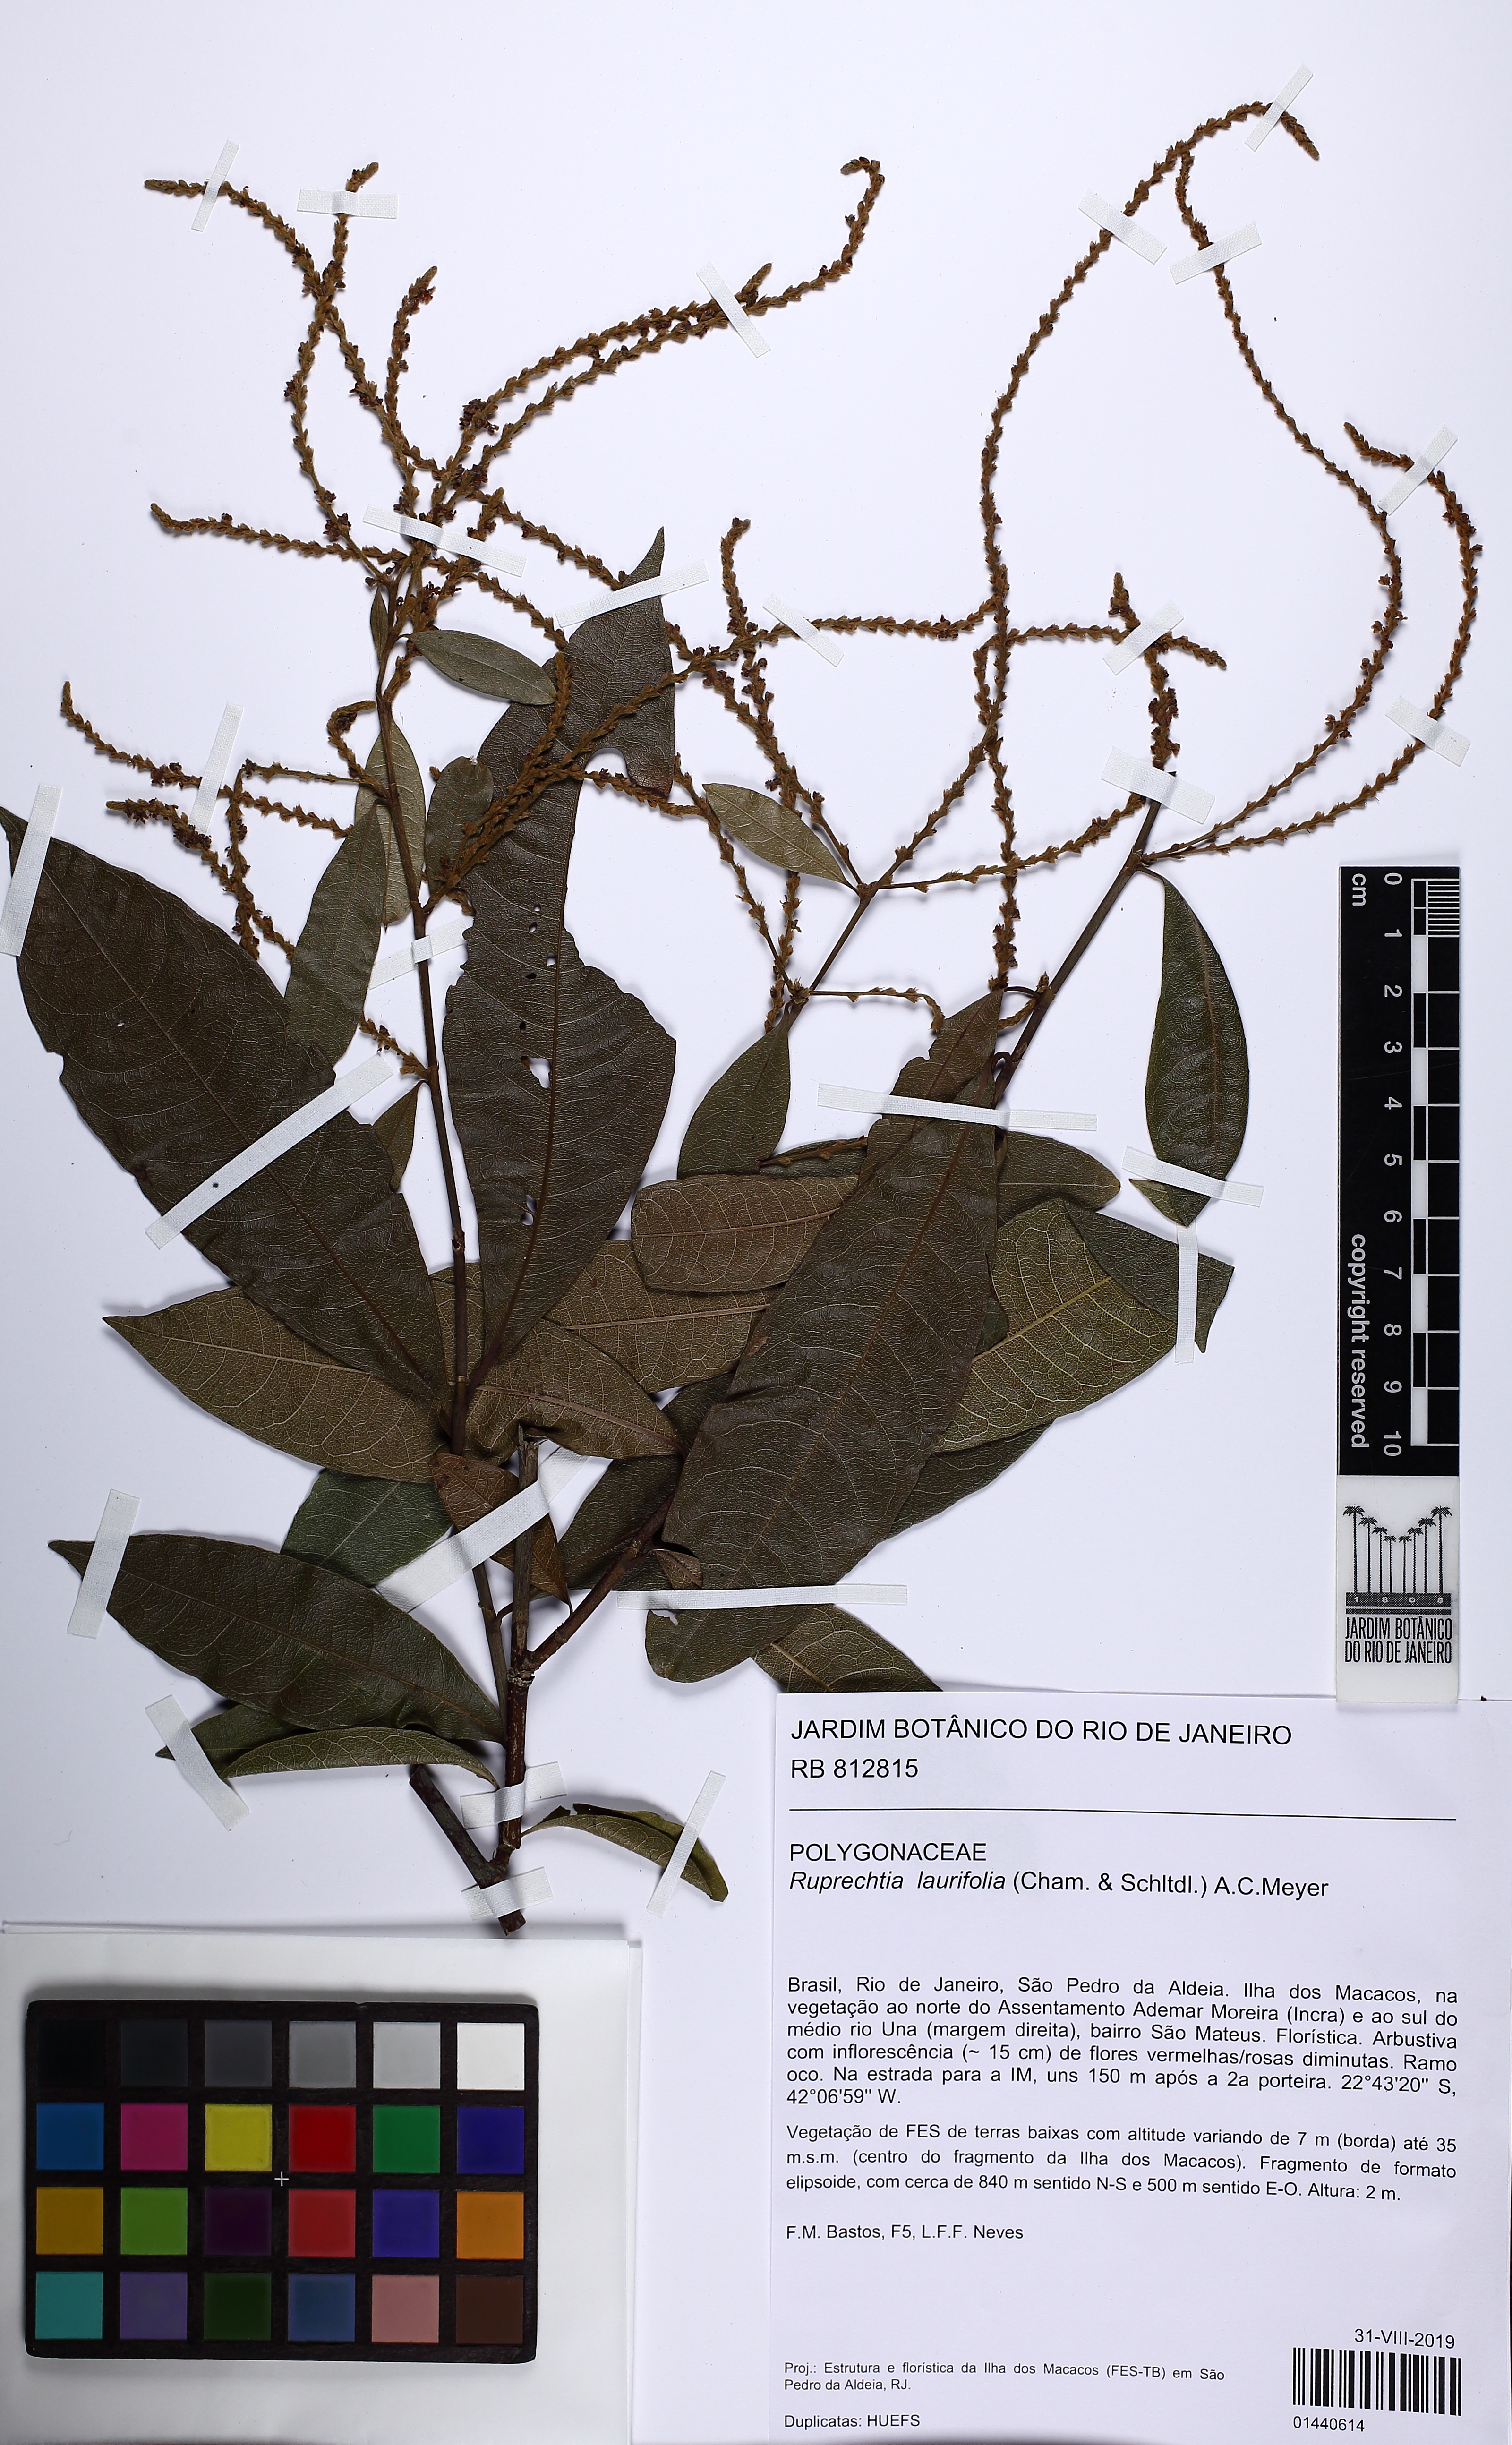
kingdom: Plantae
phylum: Tracheophyta
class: Magnoliopsida
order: Caryophyllales
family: Polygonaceae
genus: Magoniella
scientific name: Magoniella obidensis
